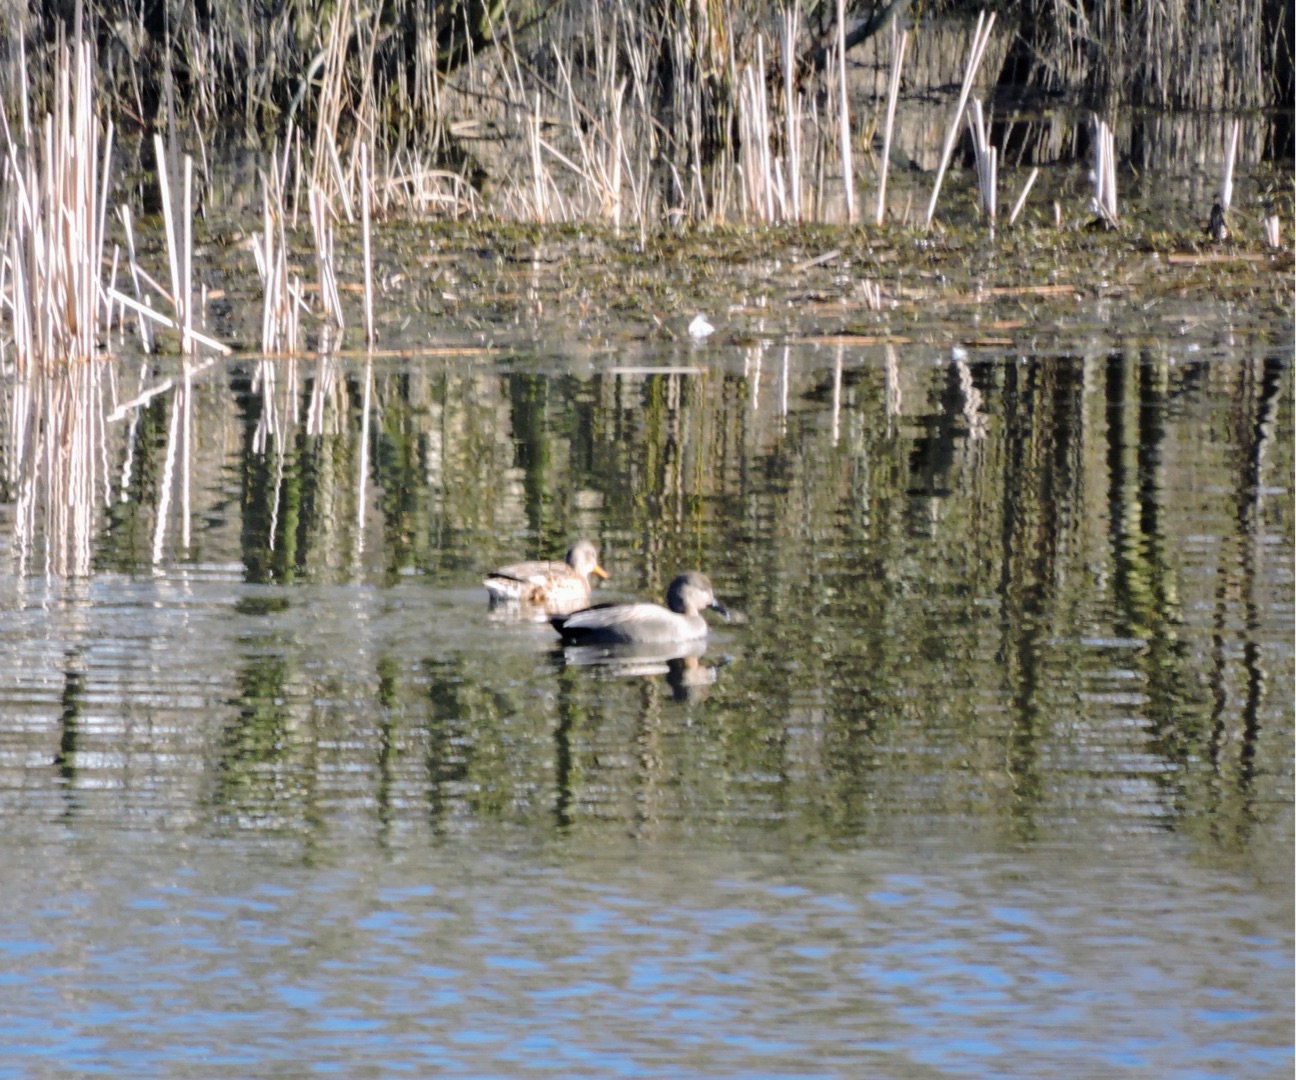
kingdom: Animalia
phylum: Chordata
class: Aves
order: Anseriformes
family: Anatidae
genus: Mareca
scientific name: Mareca strepera
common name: Knarand
